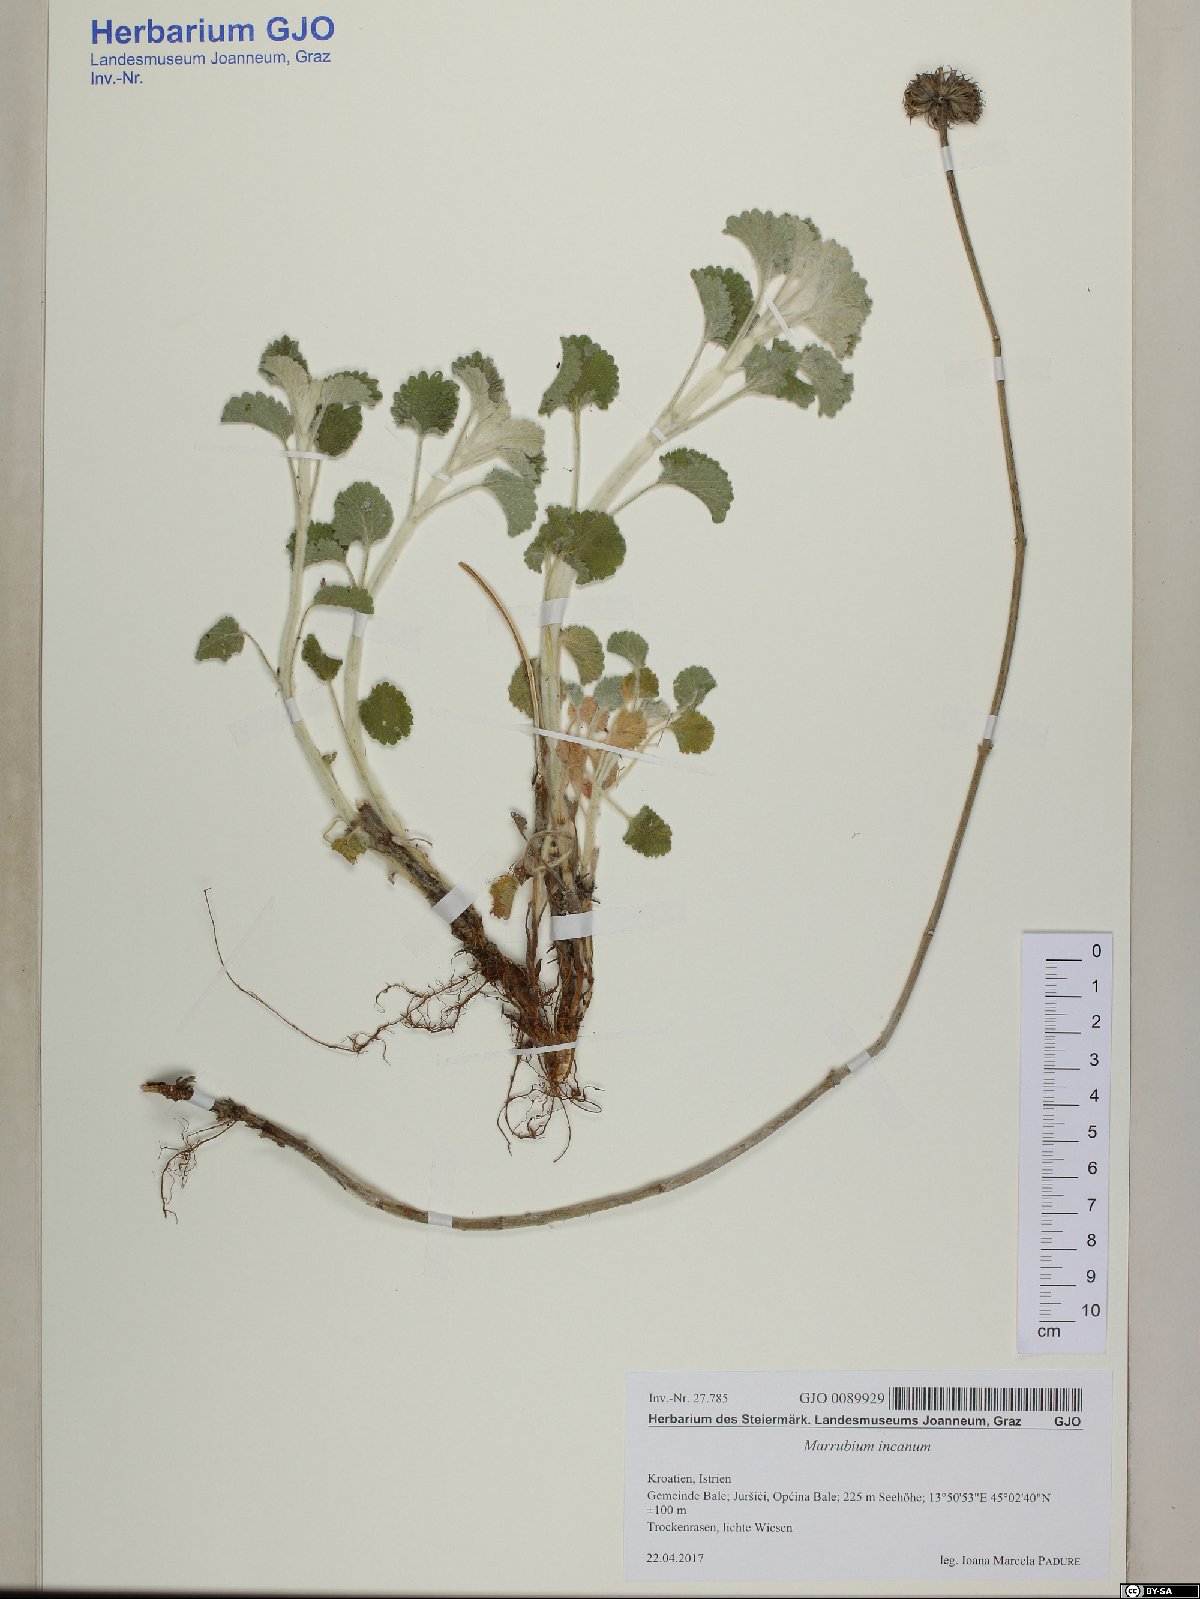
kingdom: Plantae
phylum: Tracheophyta
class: Magnoliopsida
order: Lamiales
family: Lamiaceae
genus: Marrubium
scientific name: Marrubium incanum
